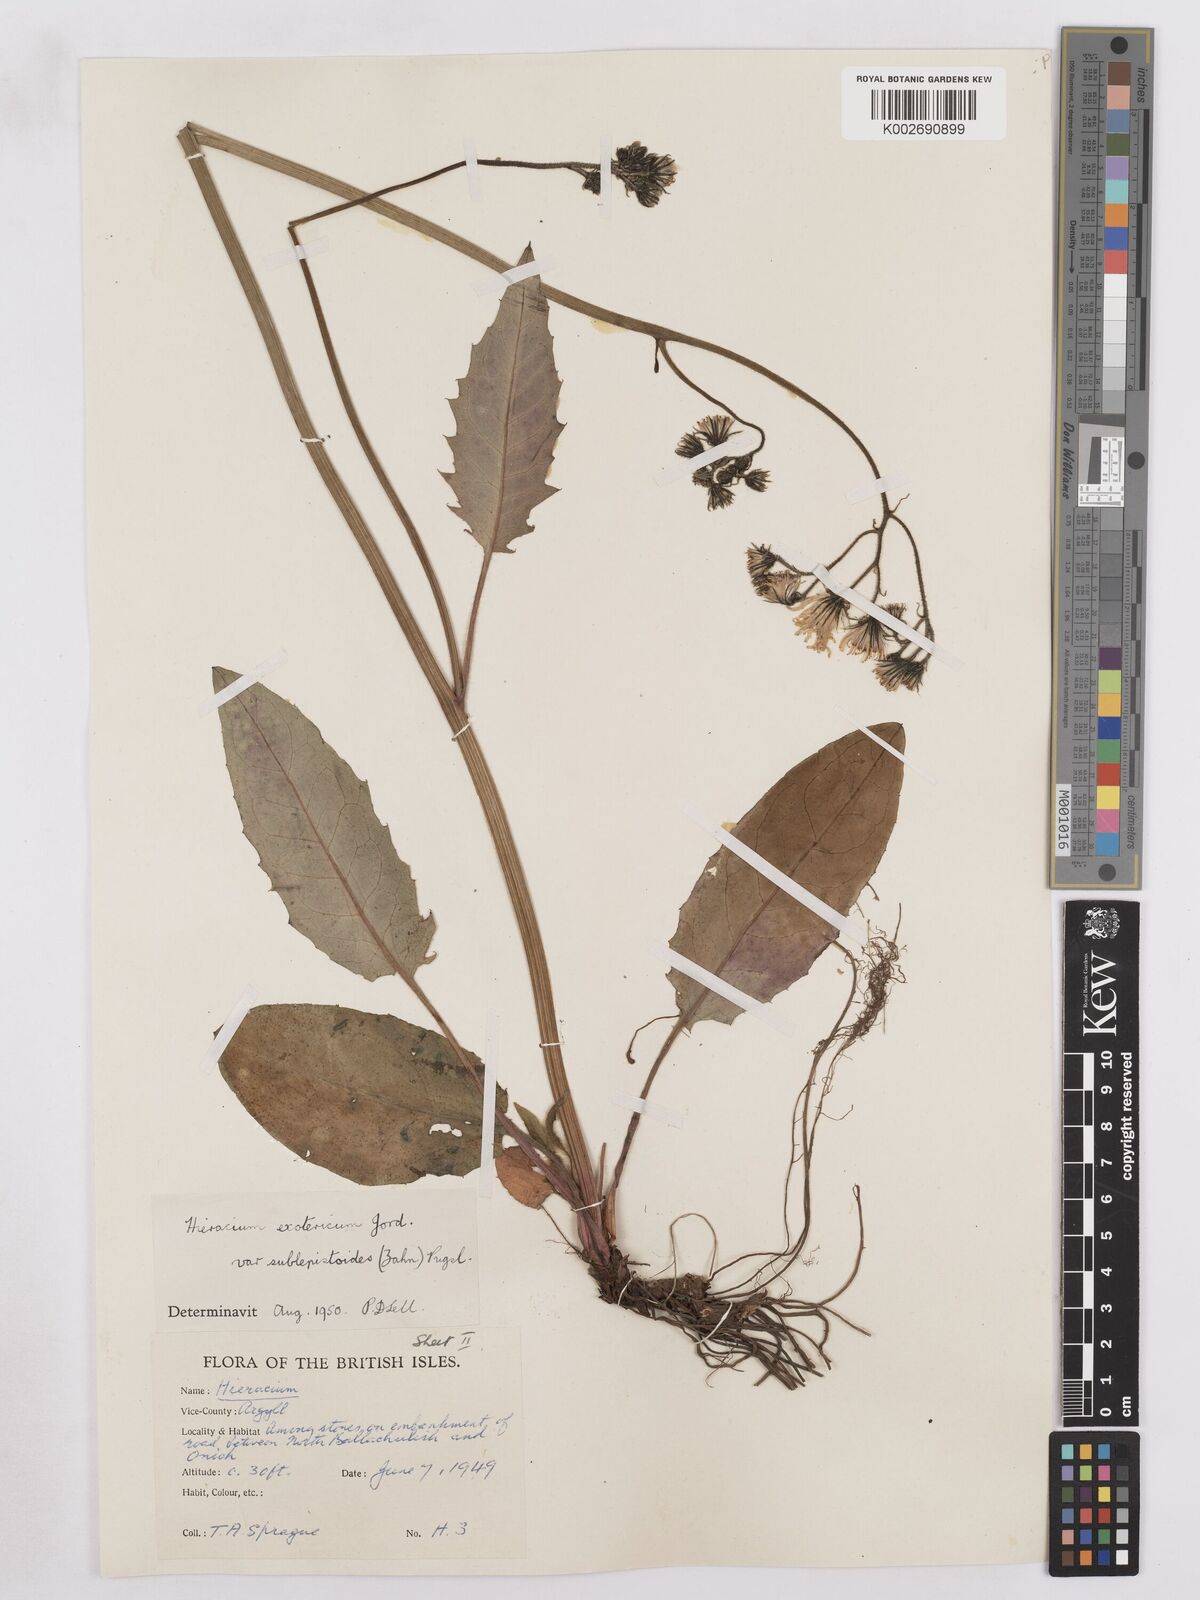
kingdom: Plantae
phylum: Tracheophyta
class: Magnoliopsida
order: Asterales
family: Asteraceae
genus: Hieracium
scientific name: Hieracium murorum
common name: Wall hawkweed
